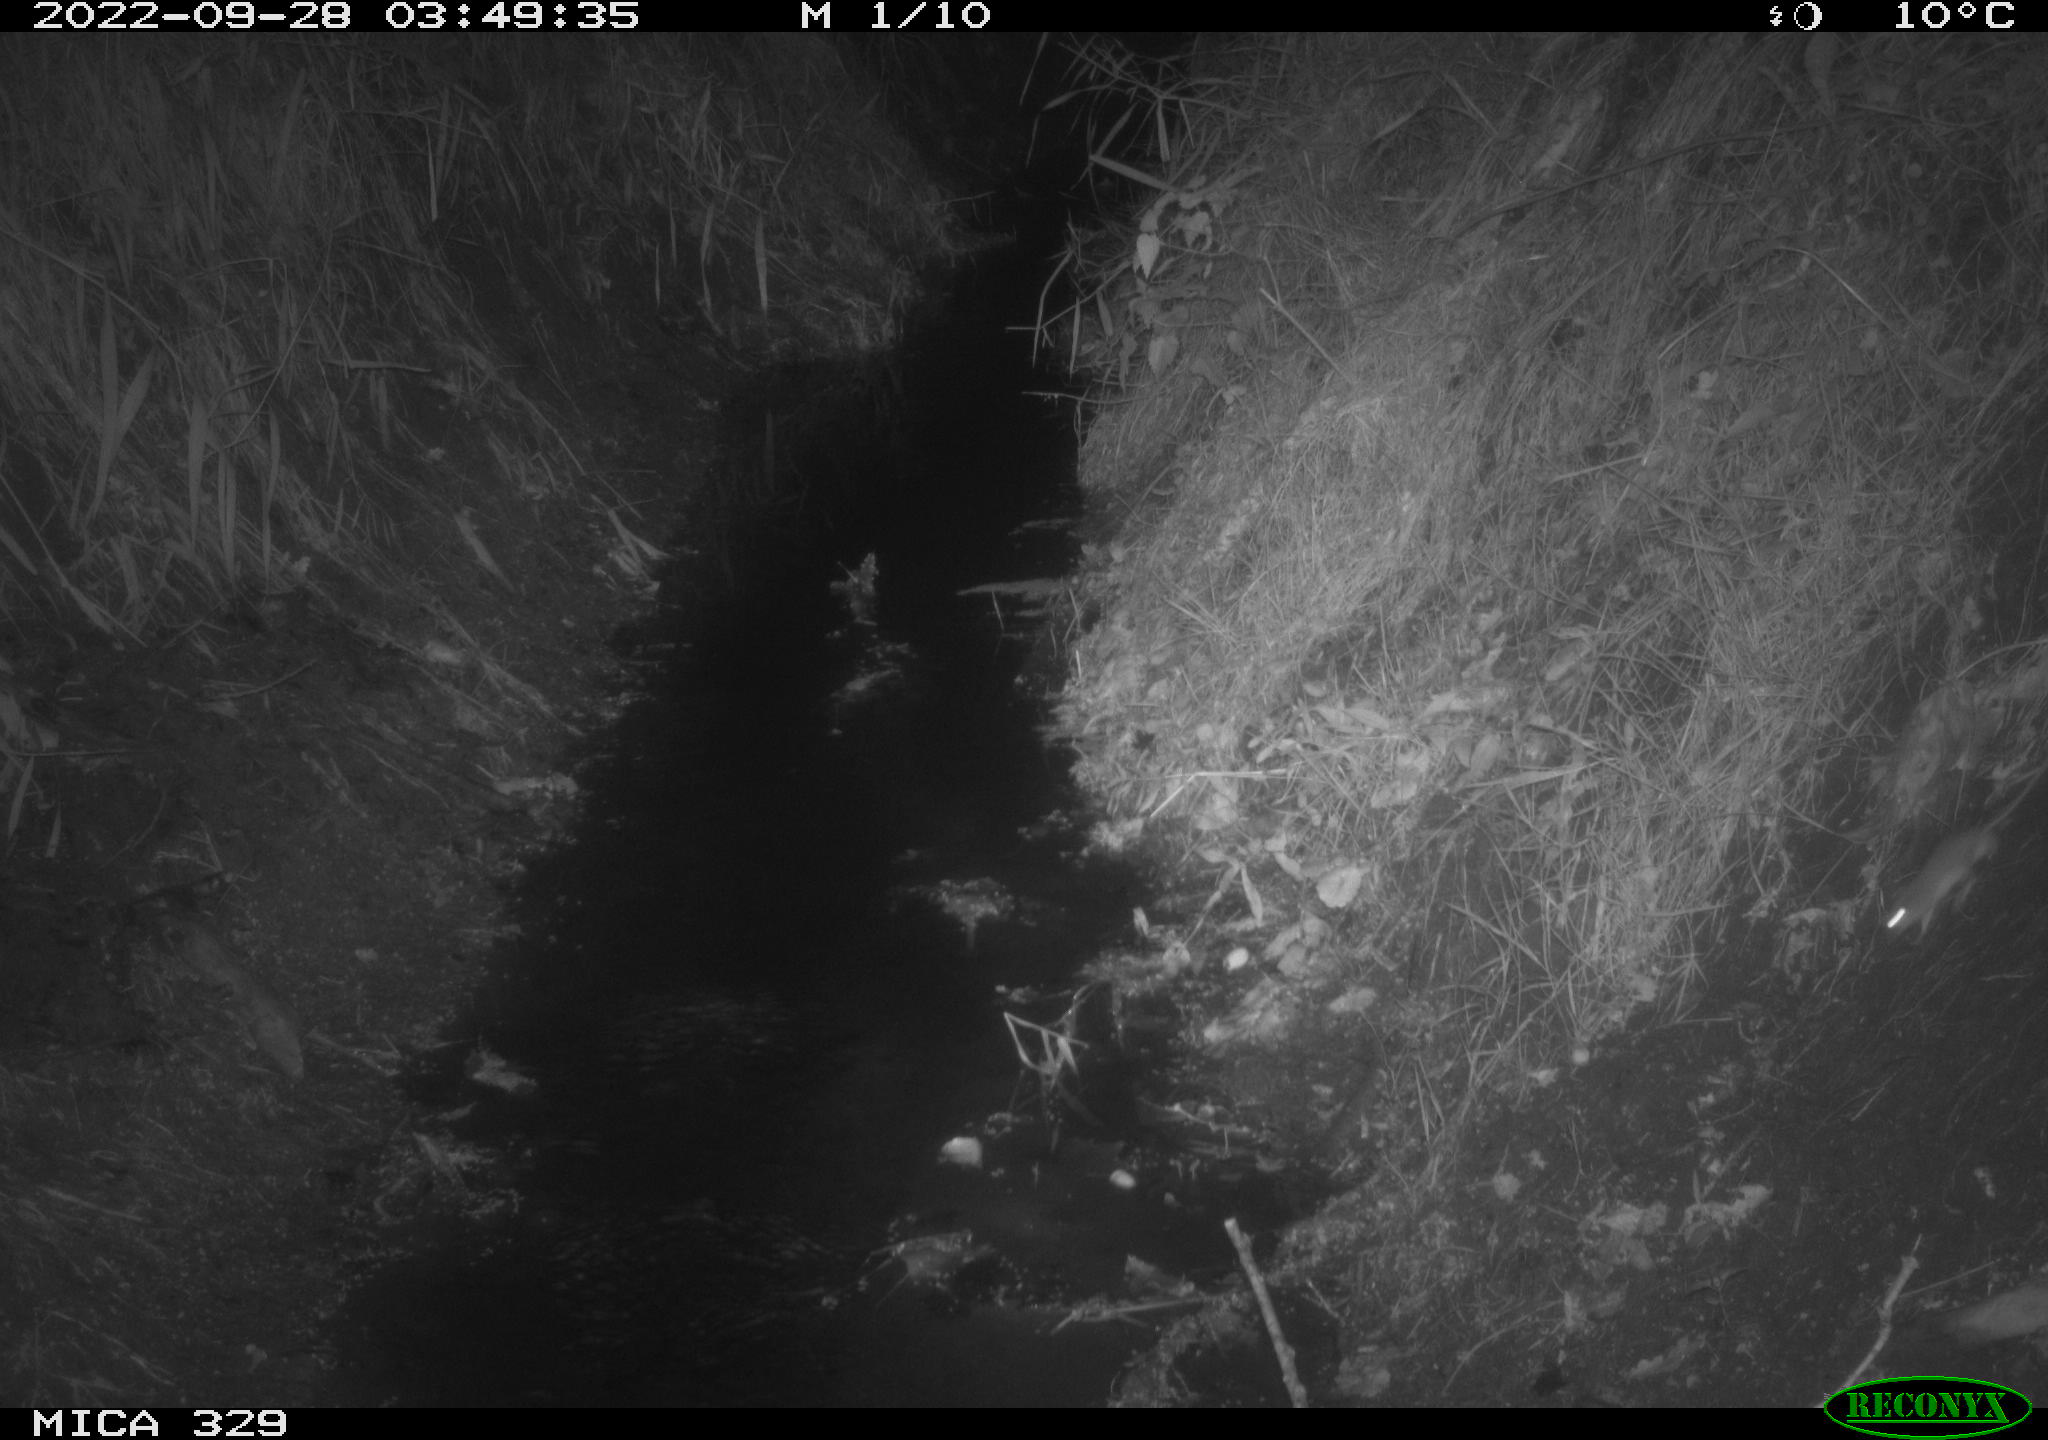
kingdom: Animalia
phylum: Chordata
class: Mammalia
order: Rodentia
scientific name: Rodentia
